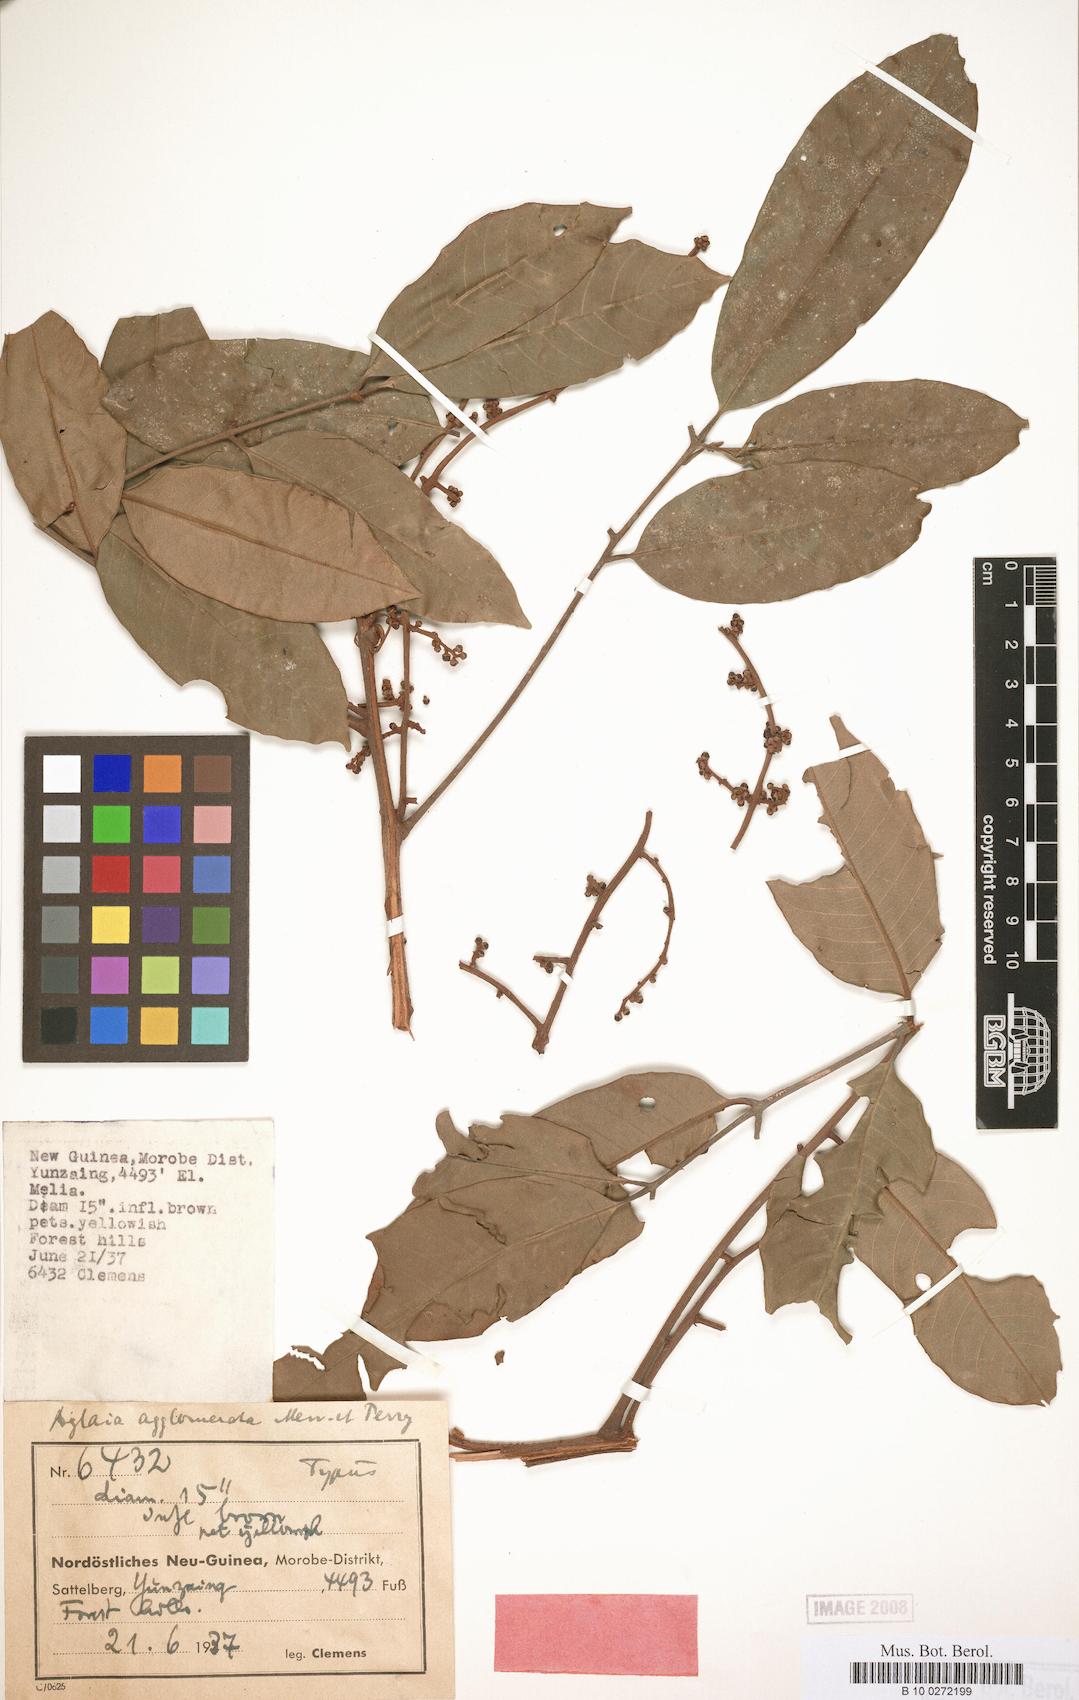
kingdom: Plantae
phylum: Tracheophyta
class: Magnoliopsida
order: Sapindales
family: Meliaceae
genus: Aglaia
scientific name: Aglaia agglomerata
